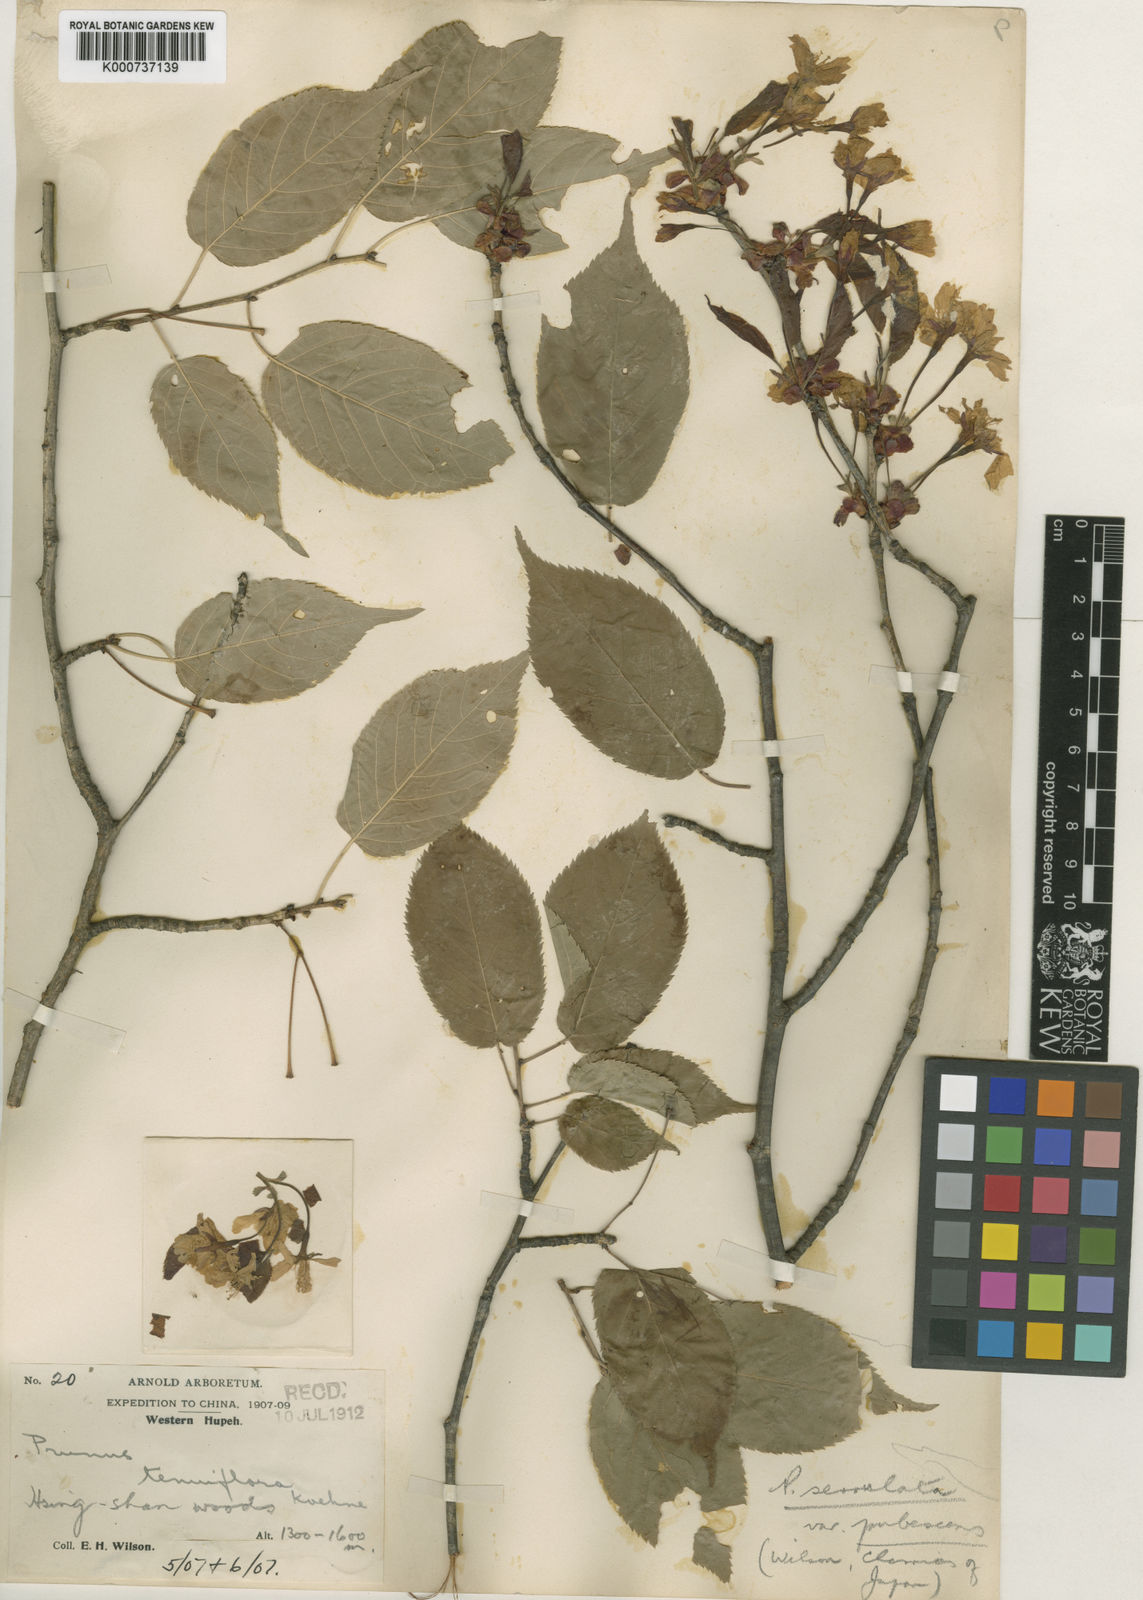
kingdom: Plantae
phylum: Tracheophyta
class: Magnoliopsida
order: Rosales
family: Rosaceae
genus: Prunus
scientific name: Prunus leveilleana
